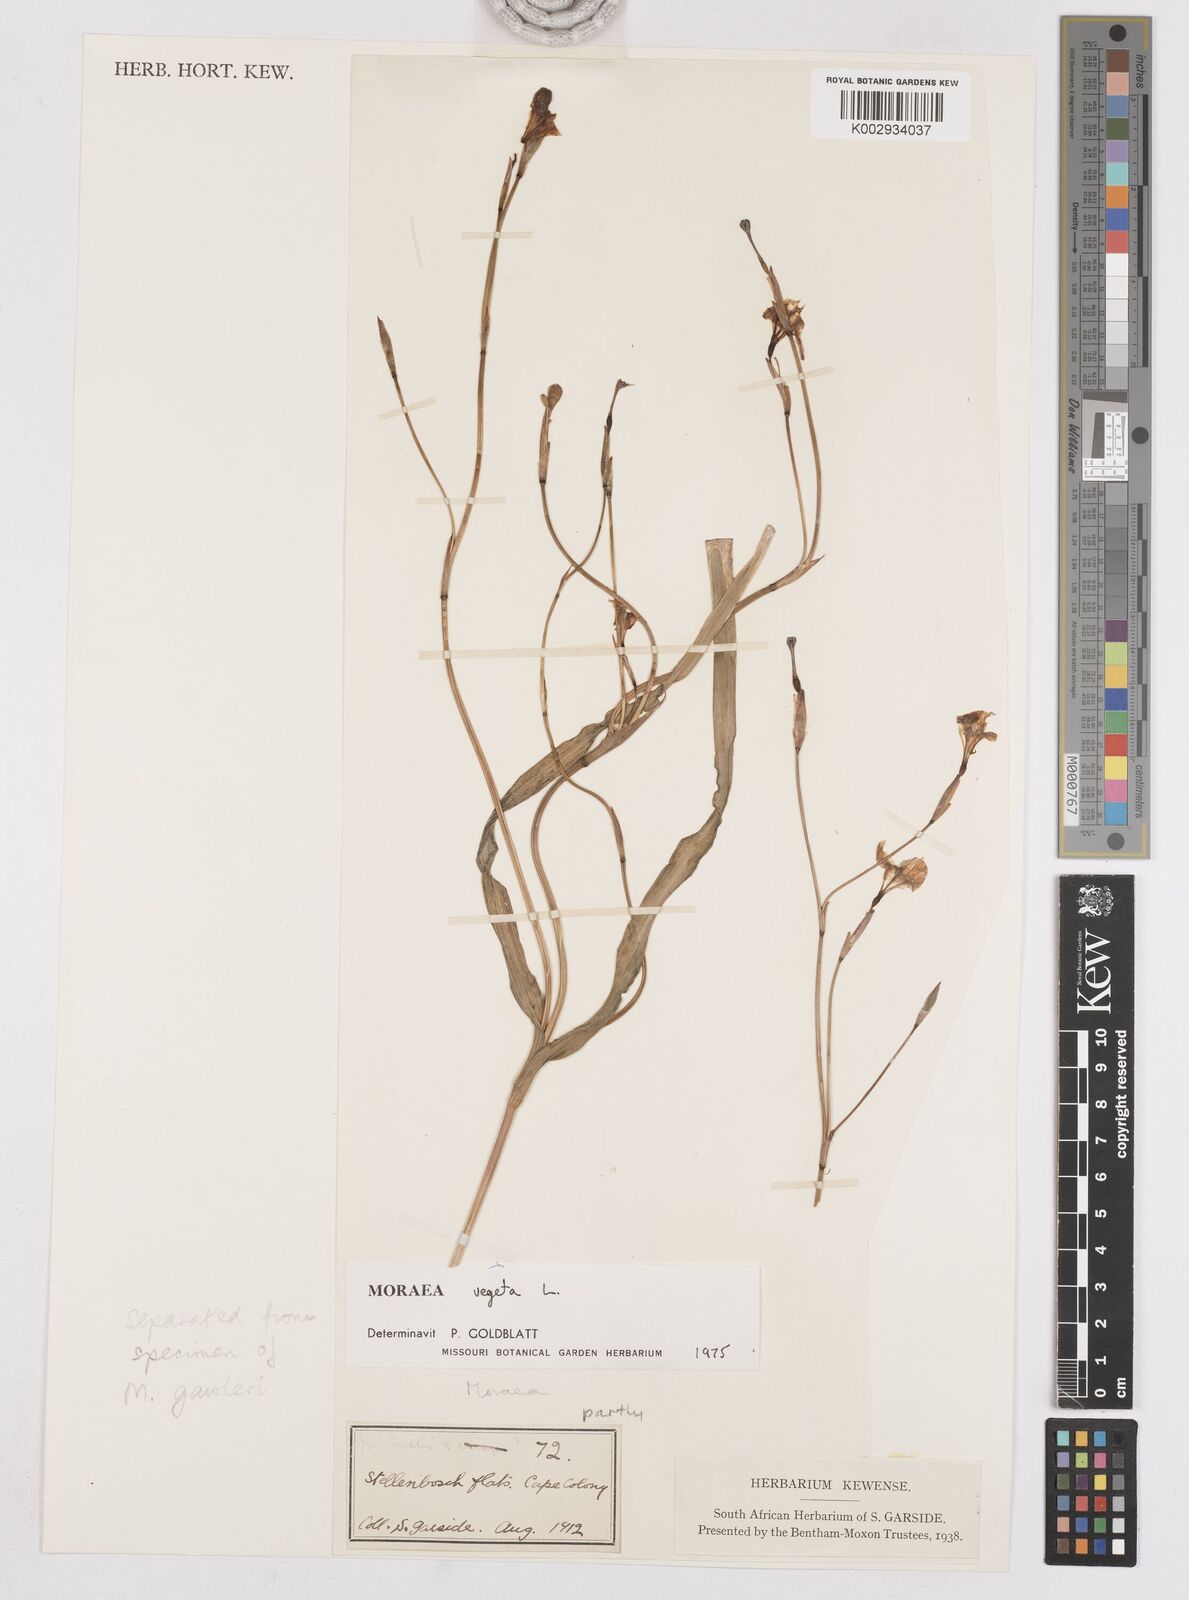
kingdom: Plantae
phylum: Tracheophyta
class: Liliopsida
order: Asparagales
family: Iridaceae
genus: Moraea
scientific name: Moraea vegeta
